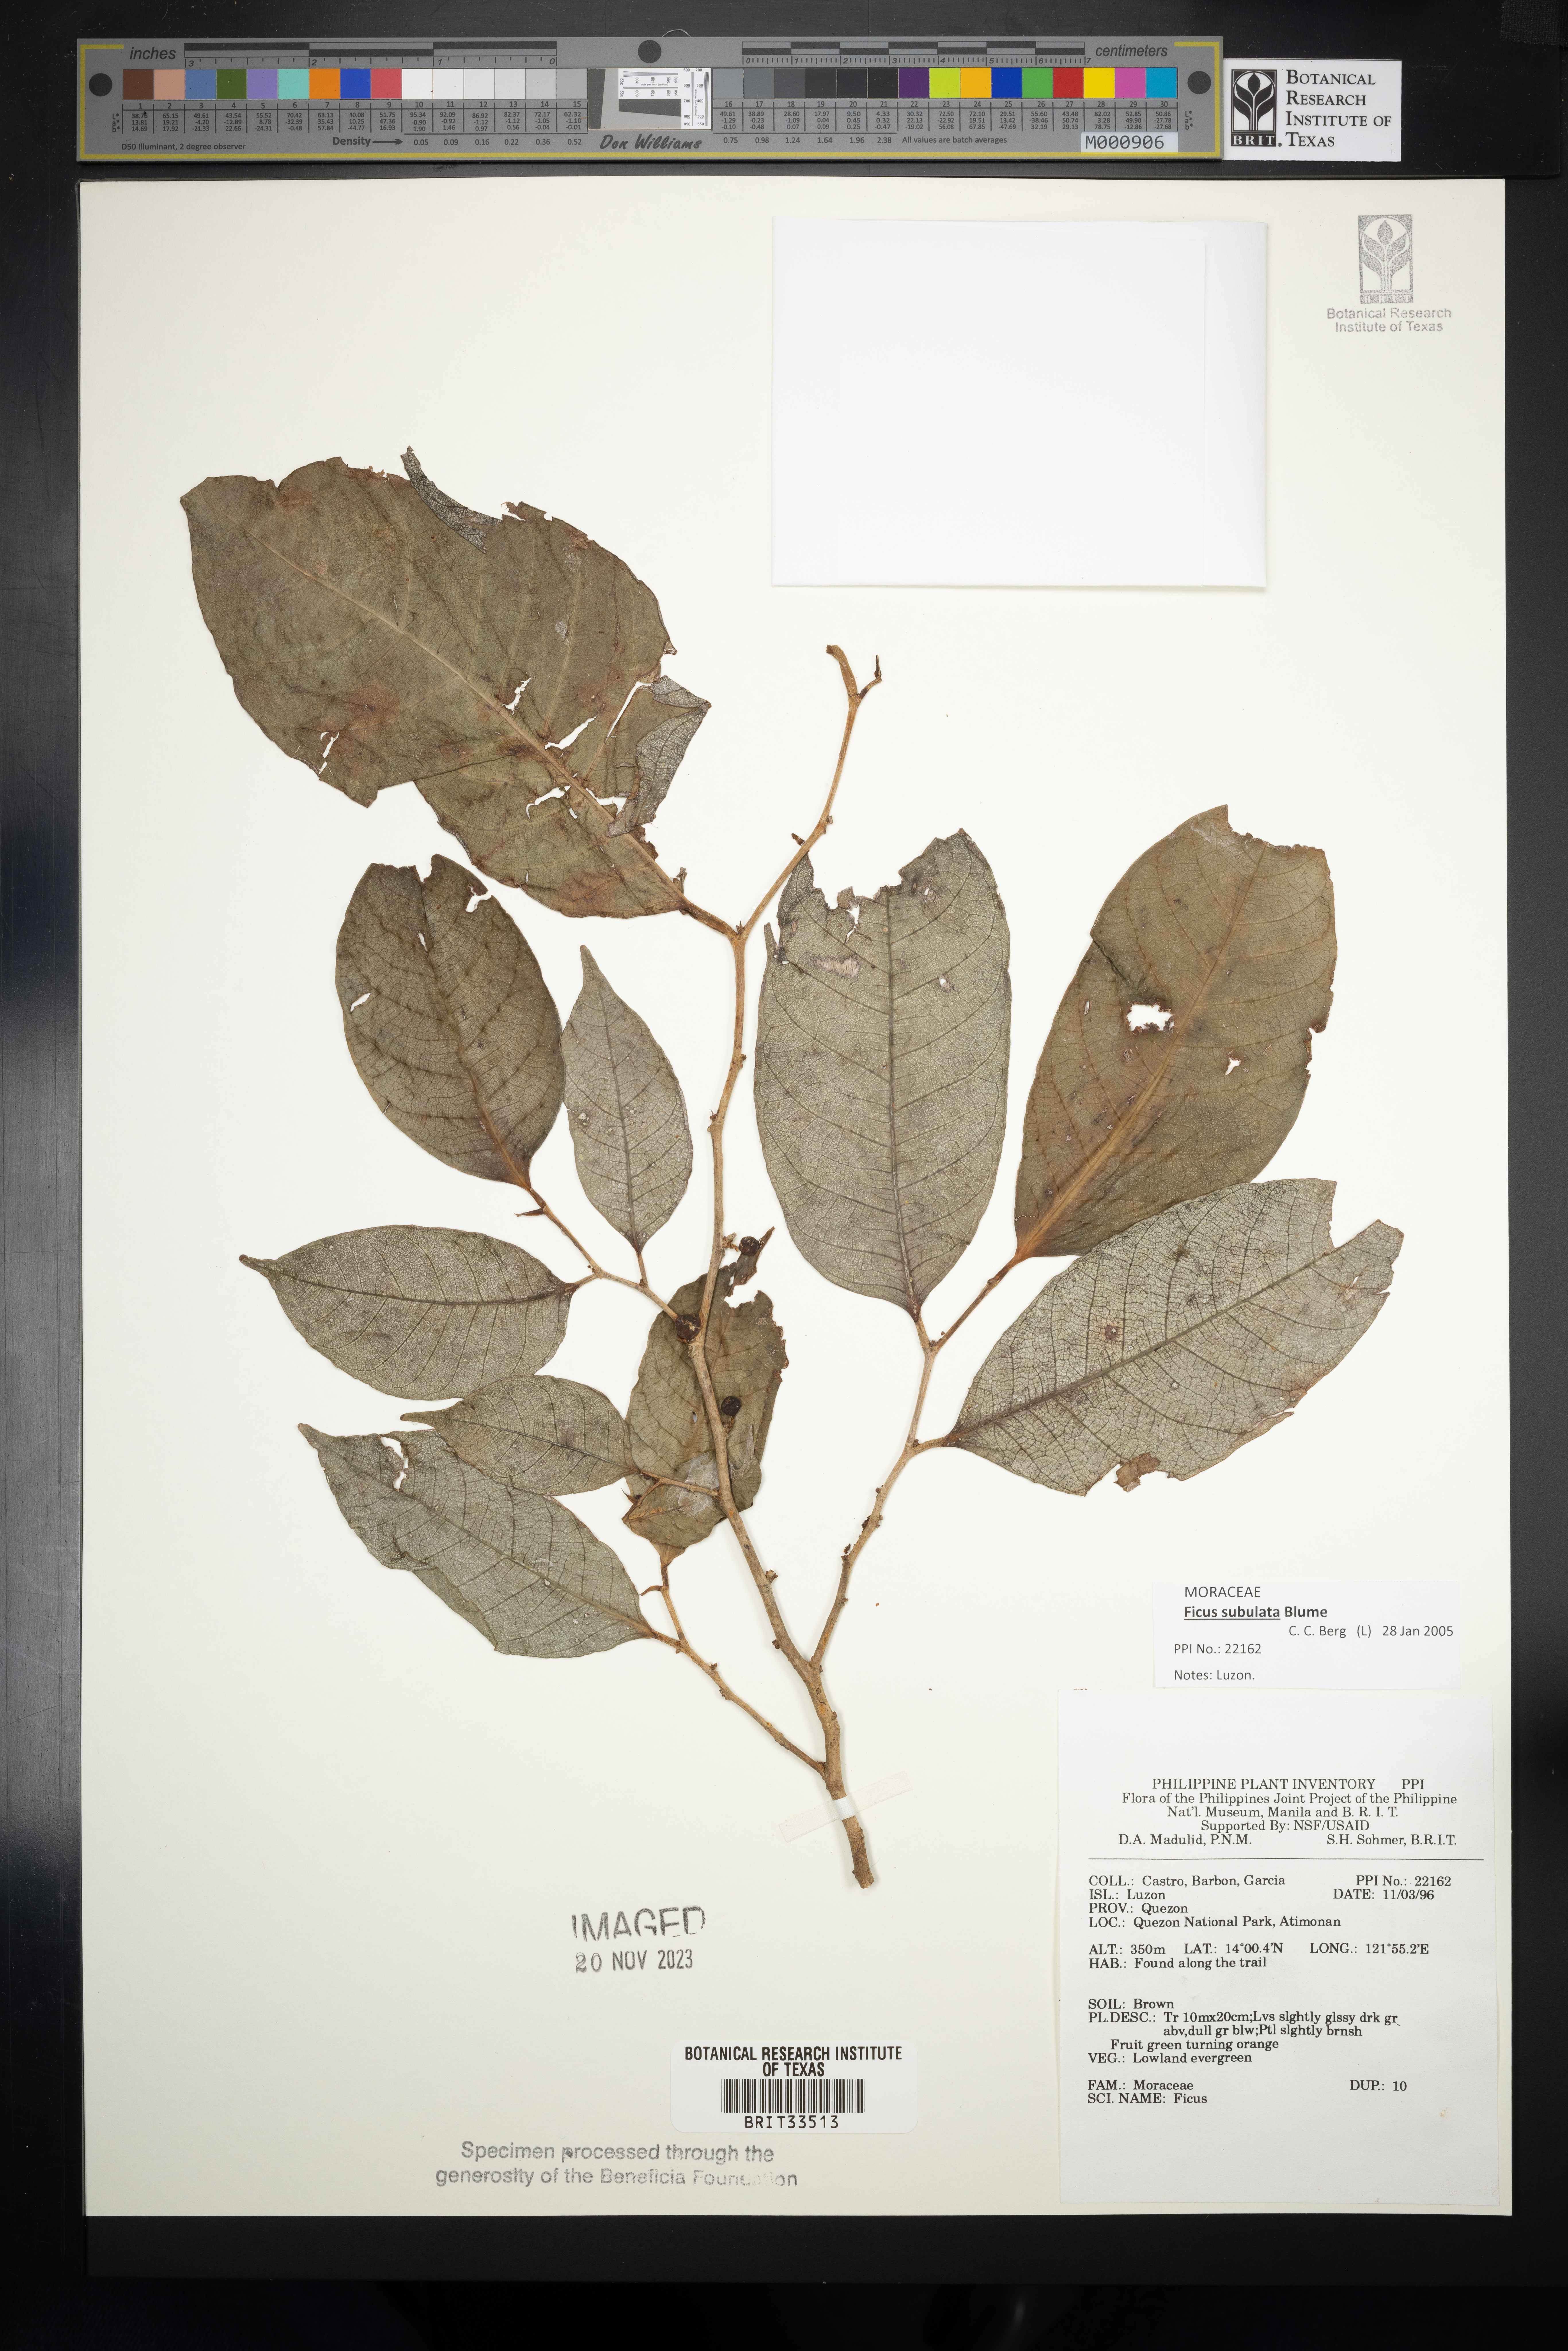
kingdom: Plantae
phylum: Tracheophyta
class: Magnoliopsida
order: Rosales
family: Moraceae
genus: Ficus
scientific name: Ficus
